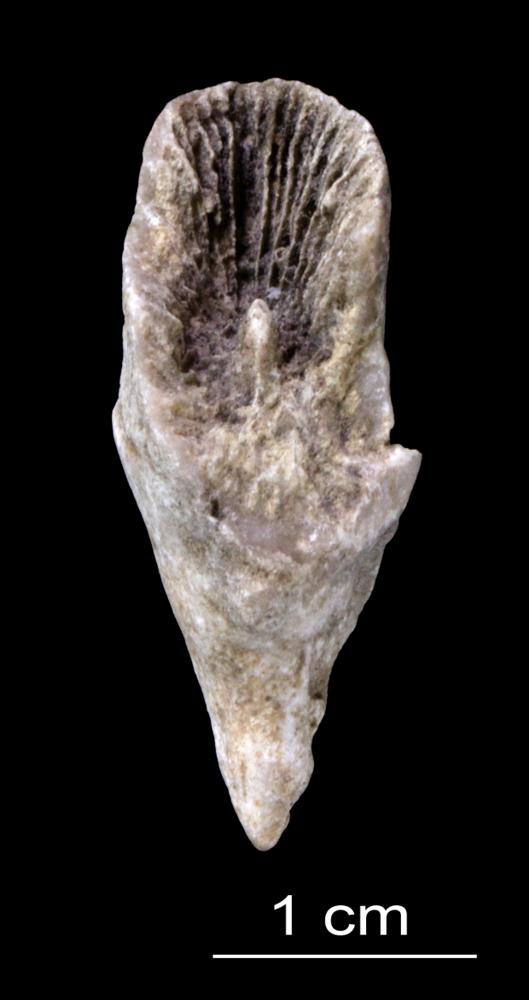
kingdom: Animalia
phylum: Cnidaria
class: Anthozoa
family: Streptelasmatidae
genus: Dalmanophyllum
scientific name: Dalmanophyllum
